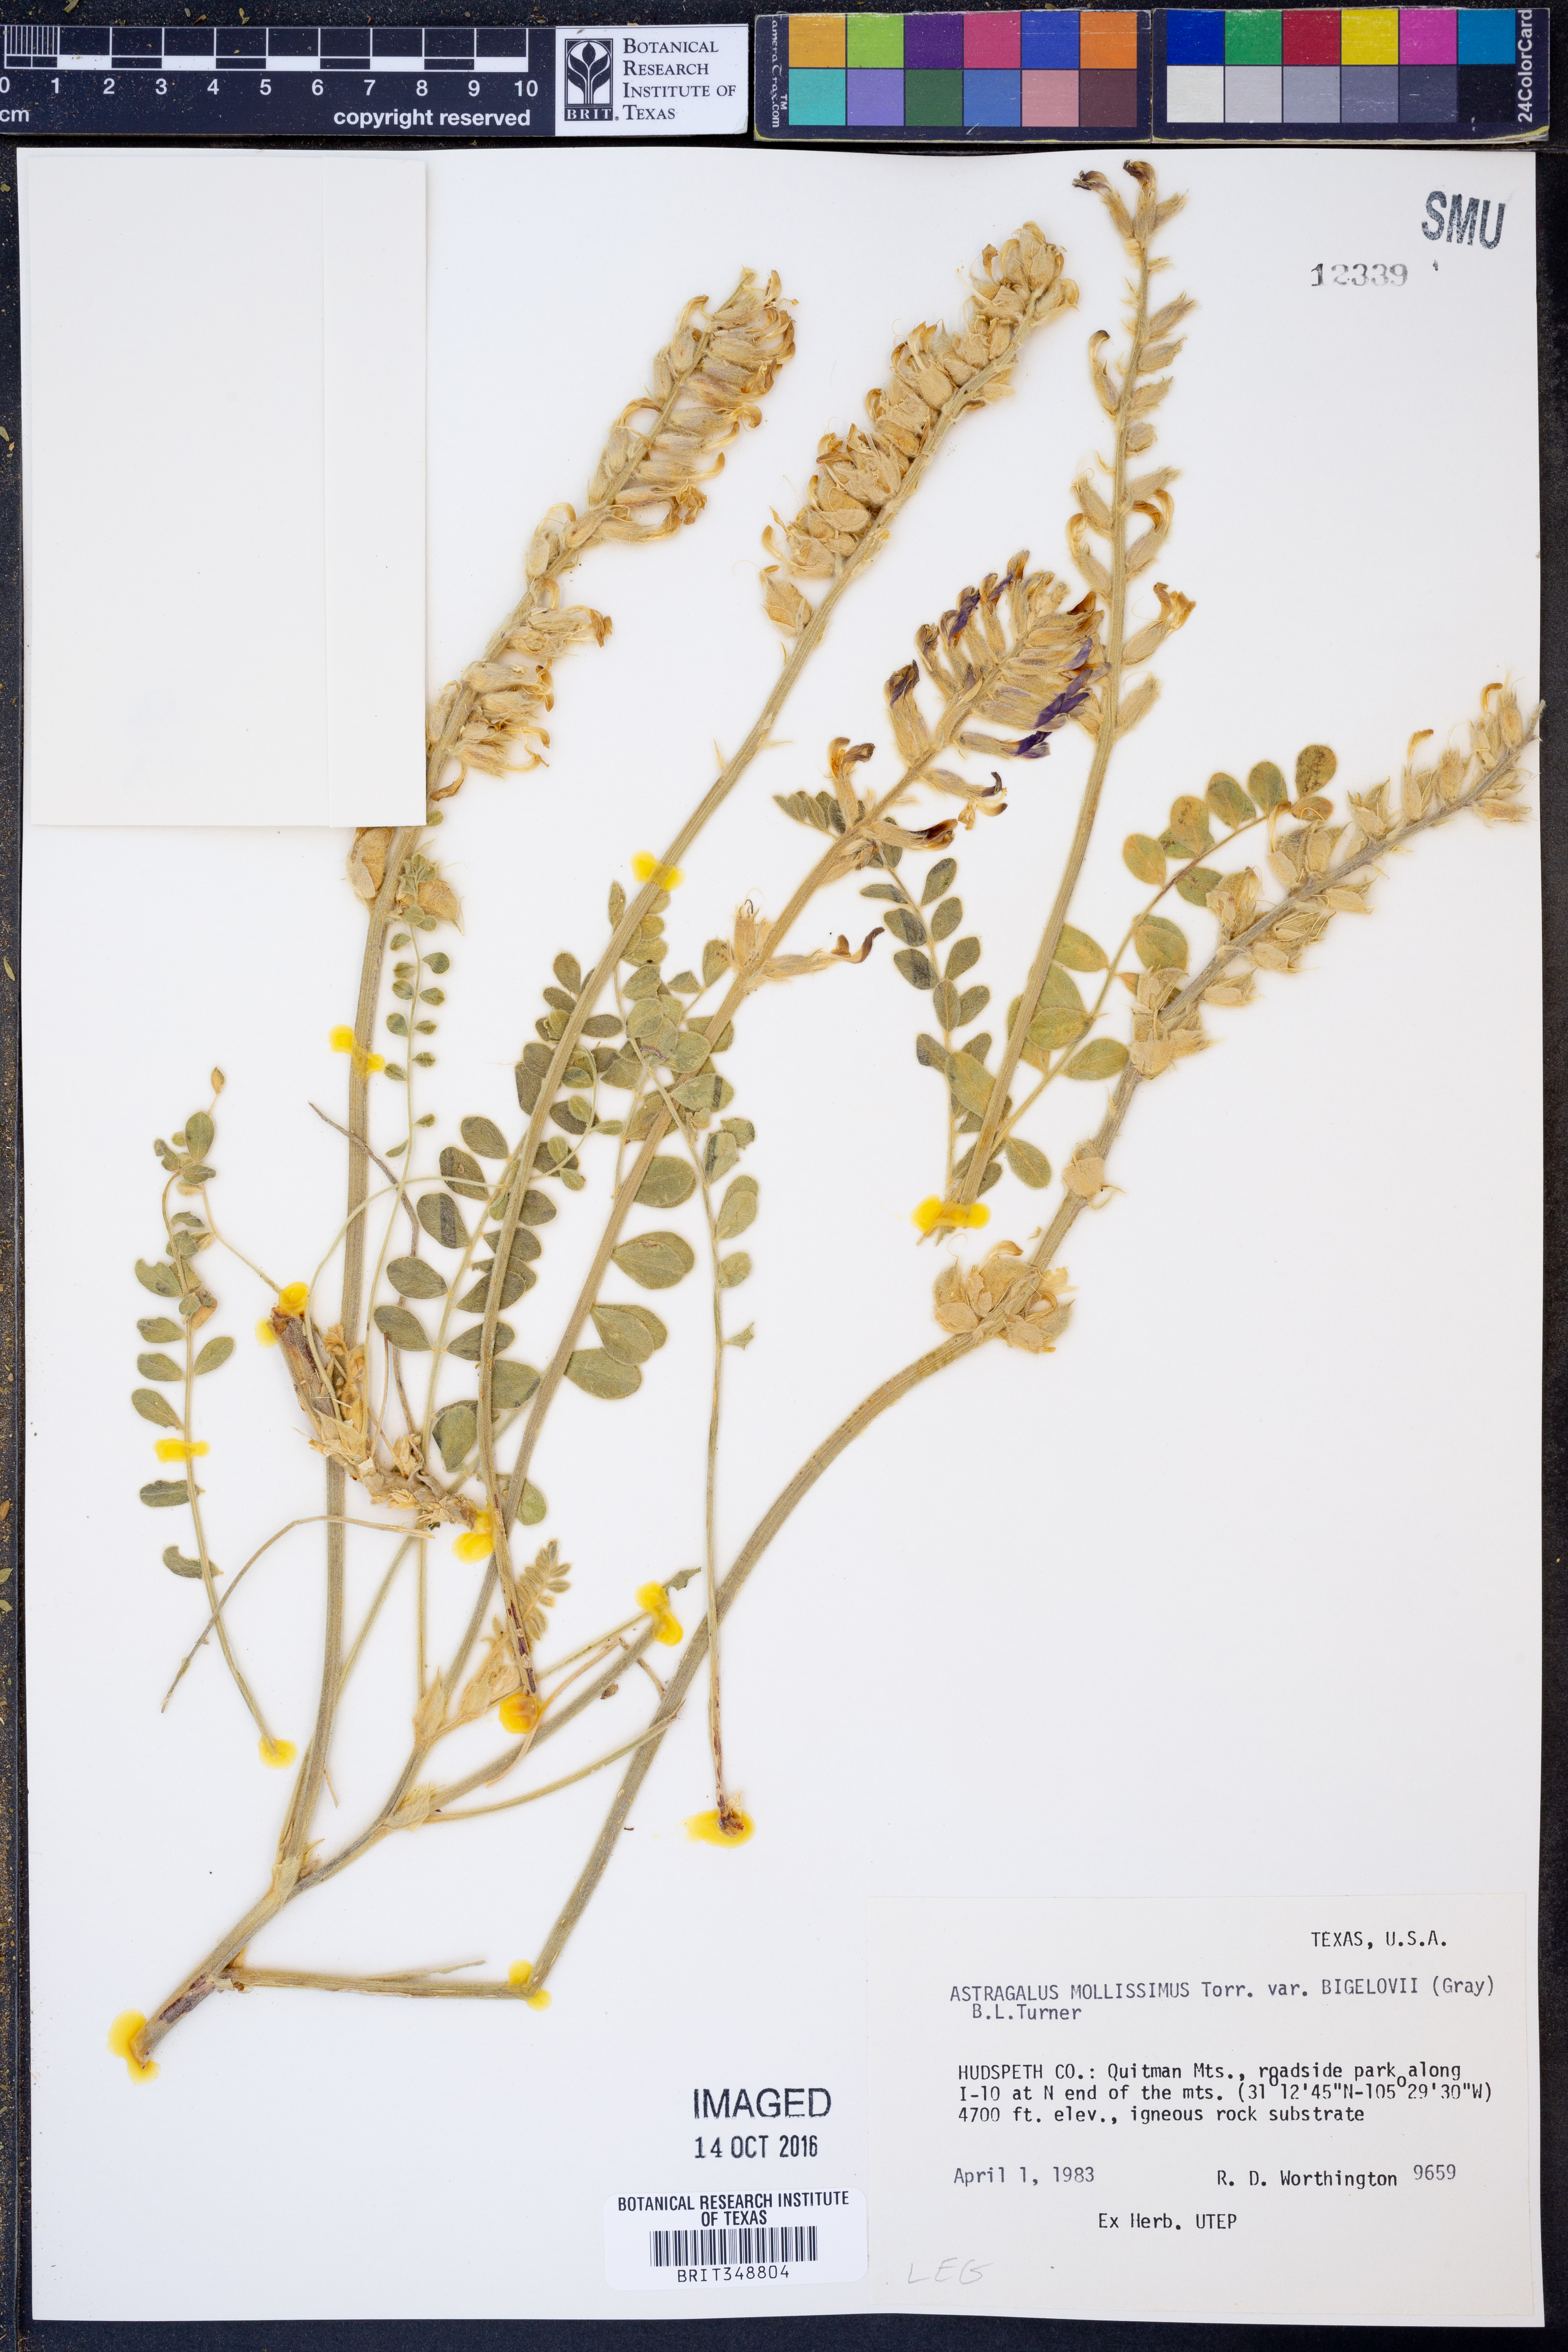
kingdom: Plantae
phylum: Tracheophyta
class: Magnoliopsida
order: Fabales
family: Fabaceae
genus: Astragalus
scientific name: Astragalus mollissimus
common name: Woolly locoweed
